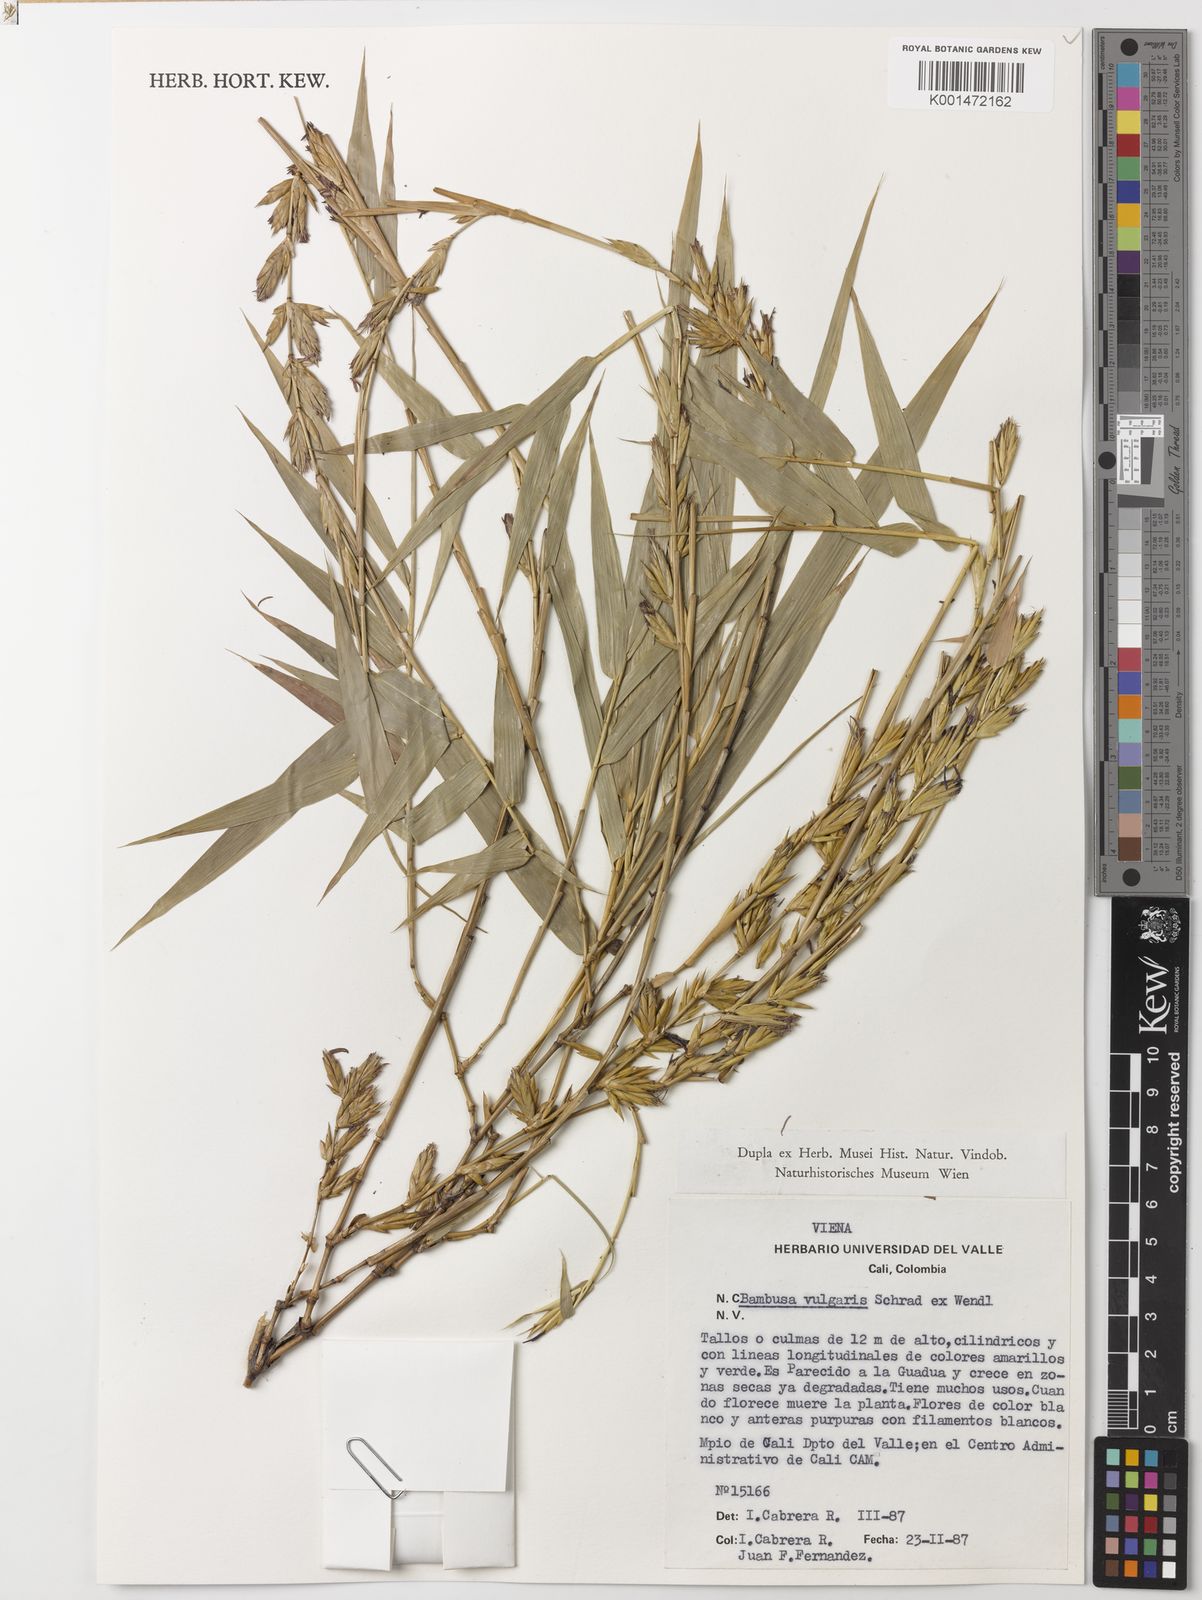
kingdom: Plantae
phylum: Tracheophyta
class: Liliopsida
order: Poales
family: Poaceae
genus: Bambusa
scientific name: Bambusa vulgaris
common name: Common bamboo
